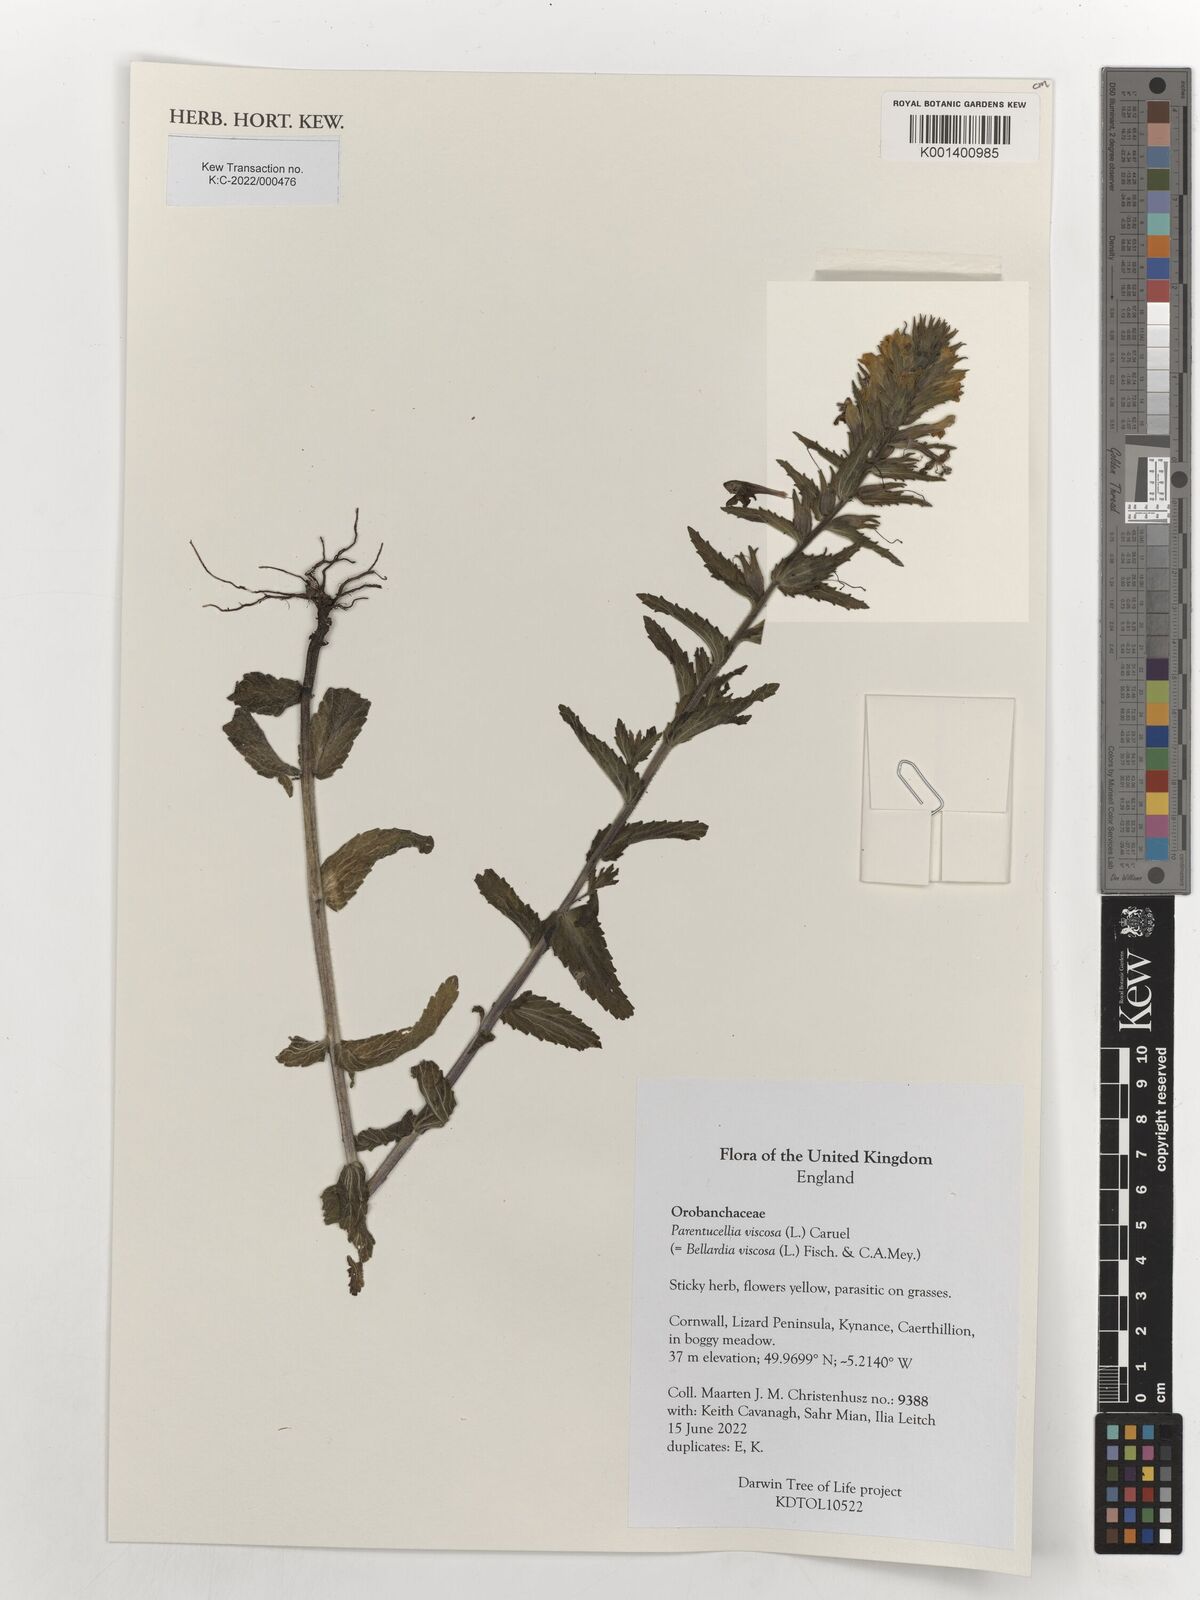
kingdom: Plantae
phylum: Tracheophyta
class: Magnoliopsida
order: Lamiales
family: Orobanchaceae
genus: Bellardia
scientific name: Bellardia viscosa
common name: Sticky parentucellia
